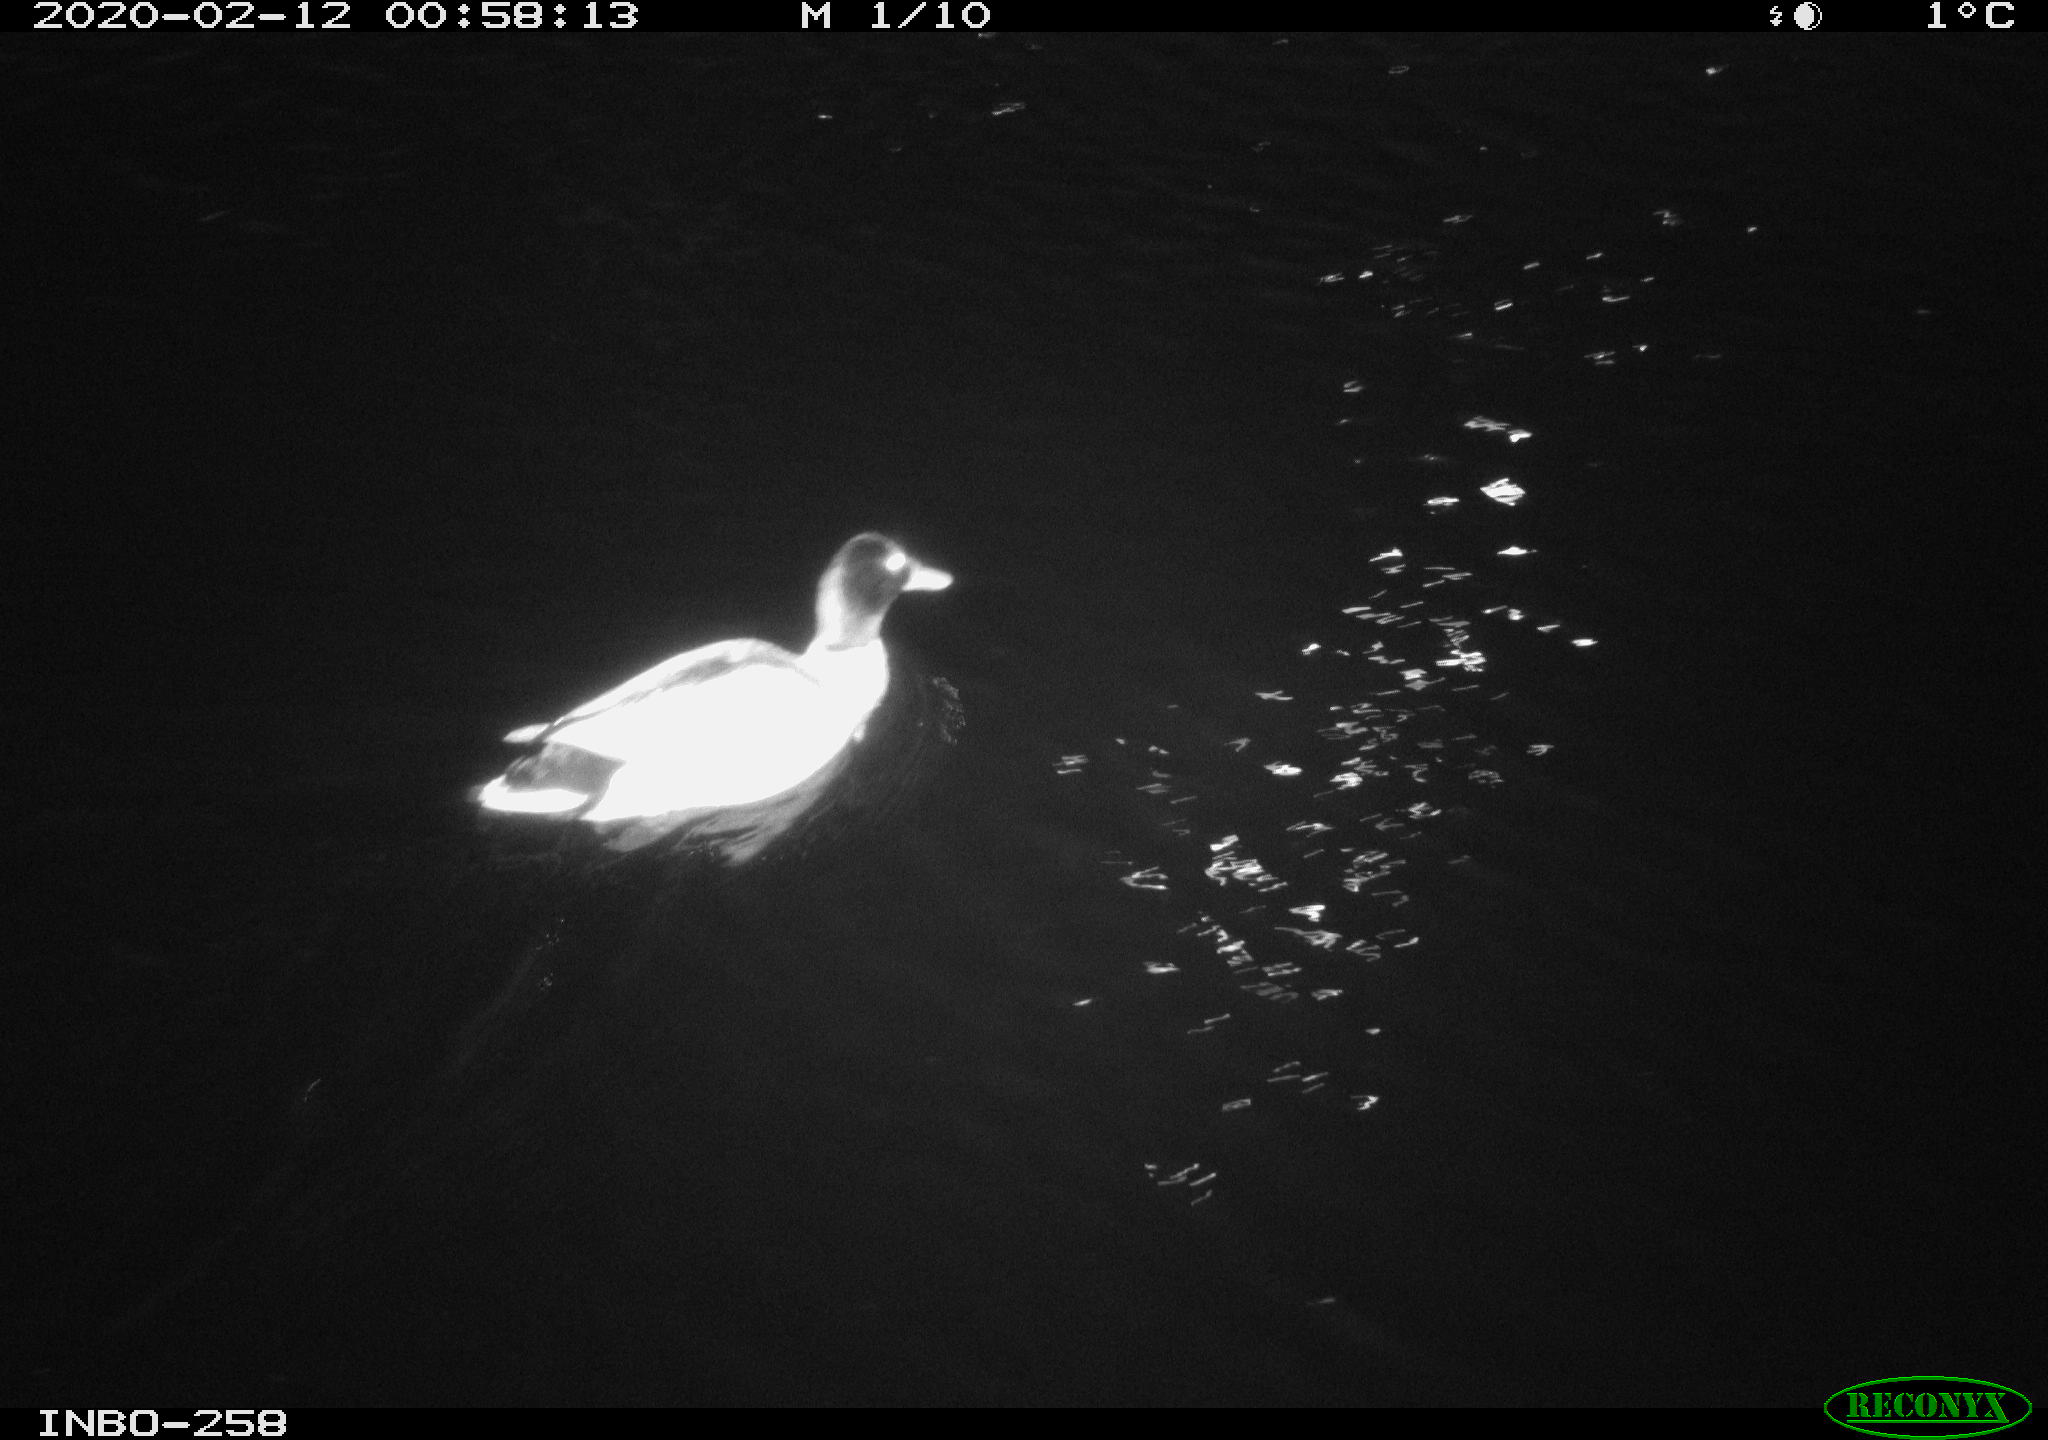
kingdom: Animalia
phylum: Chordata
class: Aves
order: Anseriformes
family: Anatidae
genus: Anas
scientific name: Anas platyrhynchos
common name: Mallard
